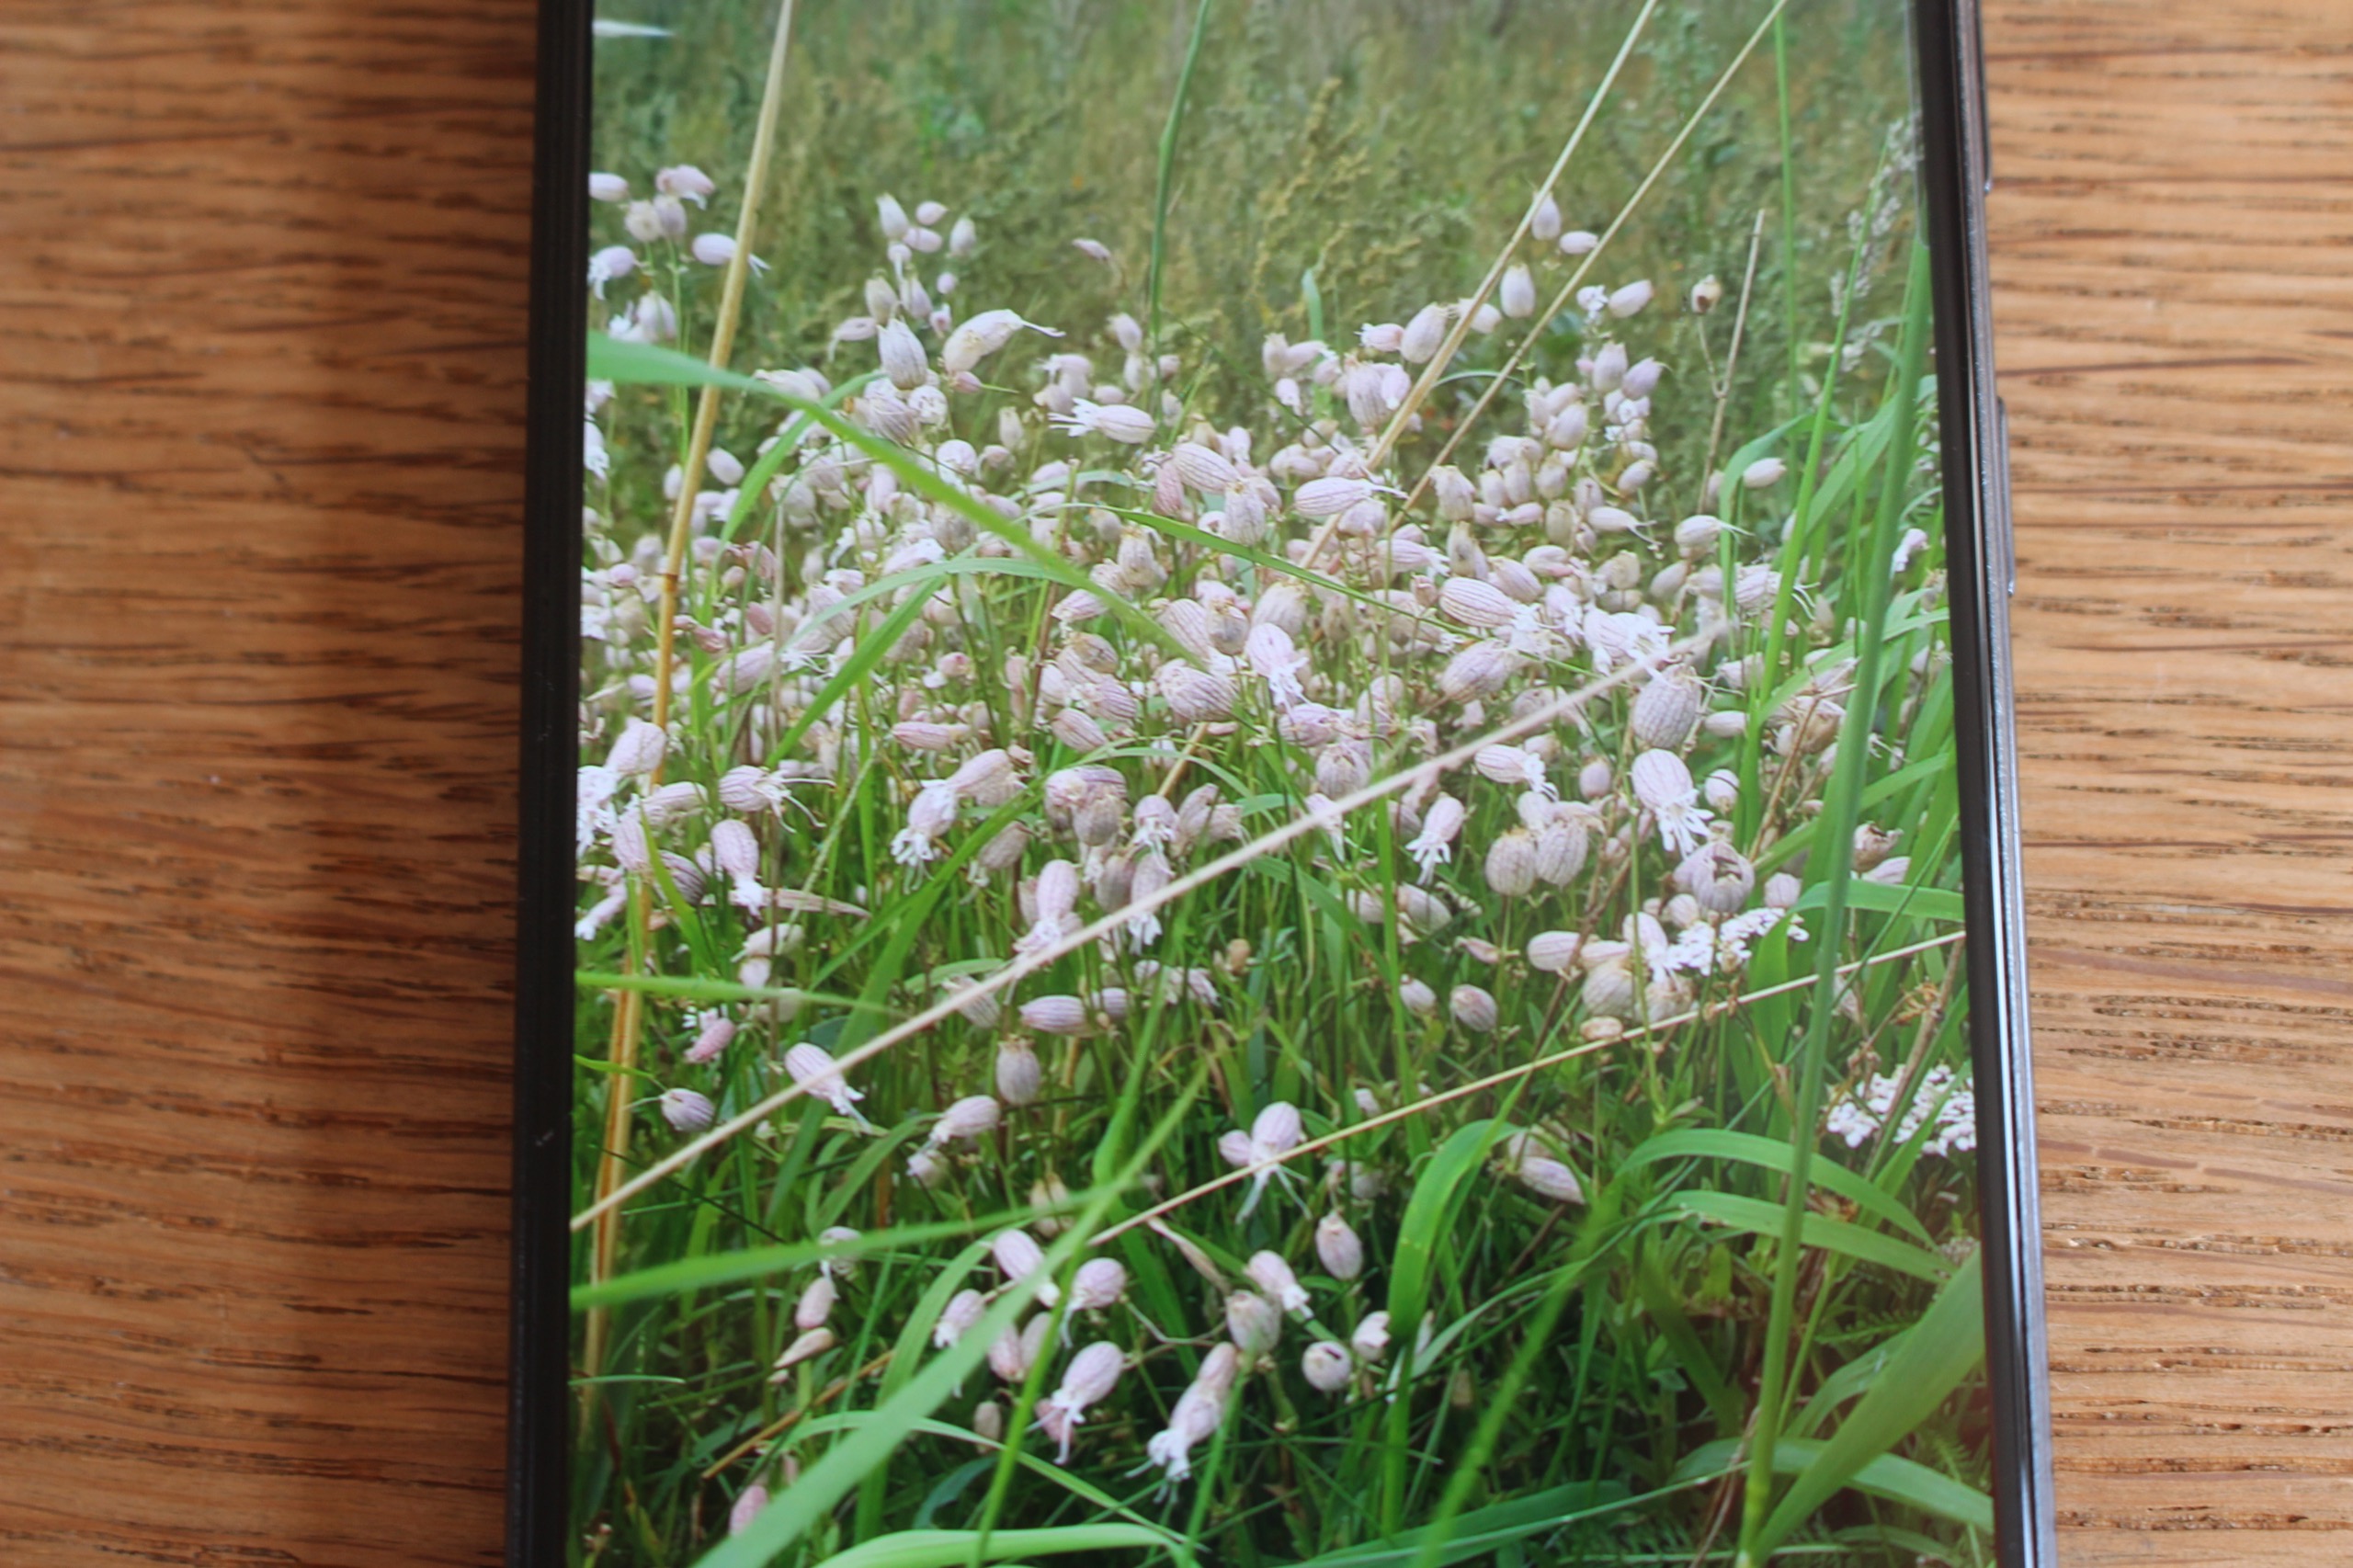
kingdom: Plantae
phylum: Tracheophyta
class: Magnoliopsida
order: Caryophyllales
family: Caryophyllaceae
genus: Silene
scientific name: Silene vulgaris
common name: Blæresmælde
